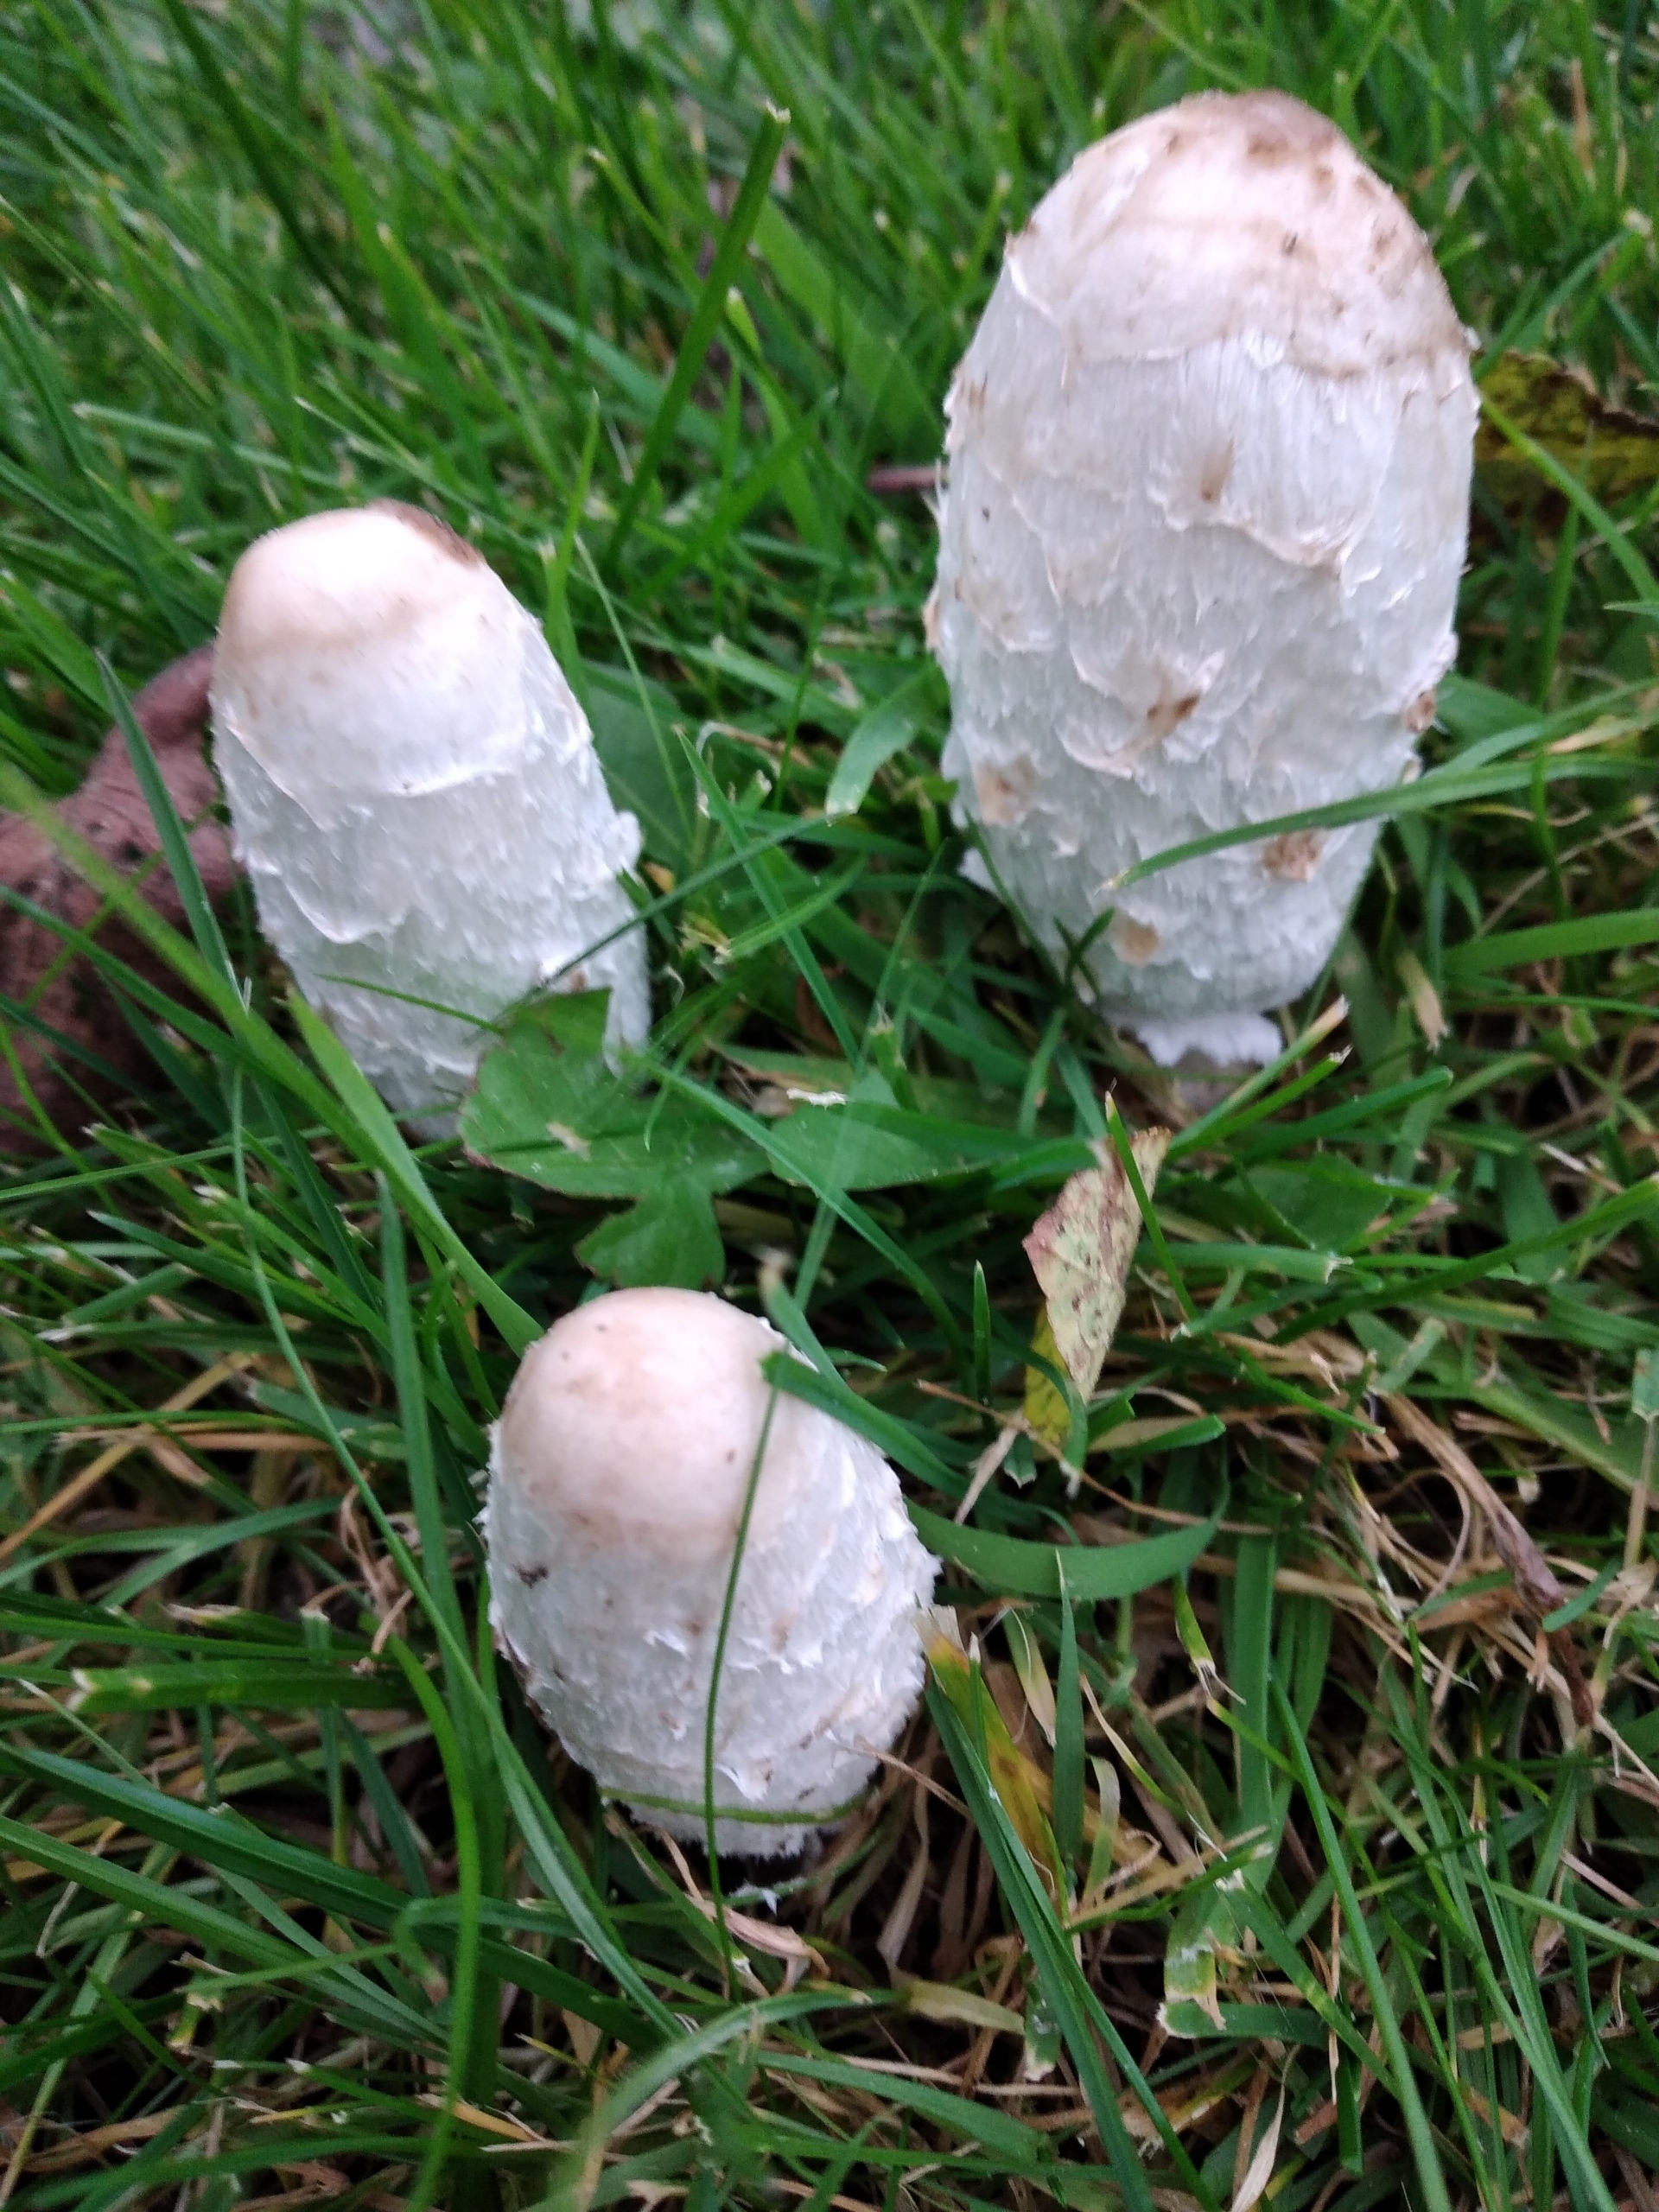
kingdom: Fungi
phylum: Basidiomycota
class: Agaricomycetes
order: Agaricales
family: Agaricaceae
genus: Coprinus
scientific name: Coprinus comatus
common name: Stor parykhat
